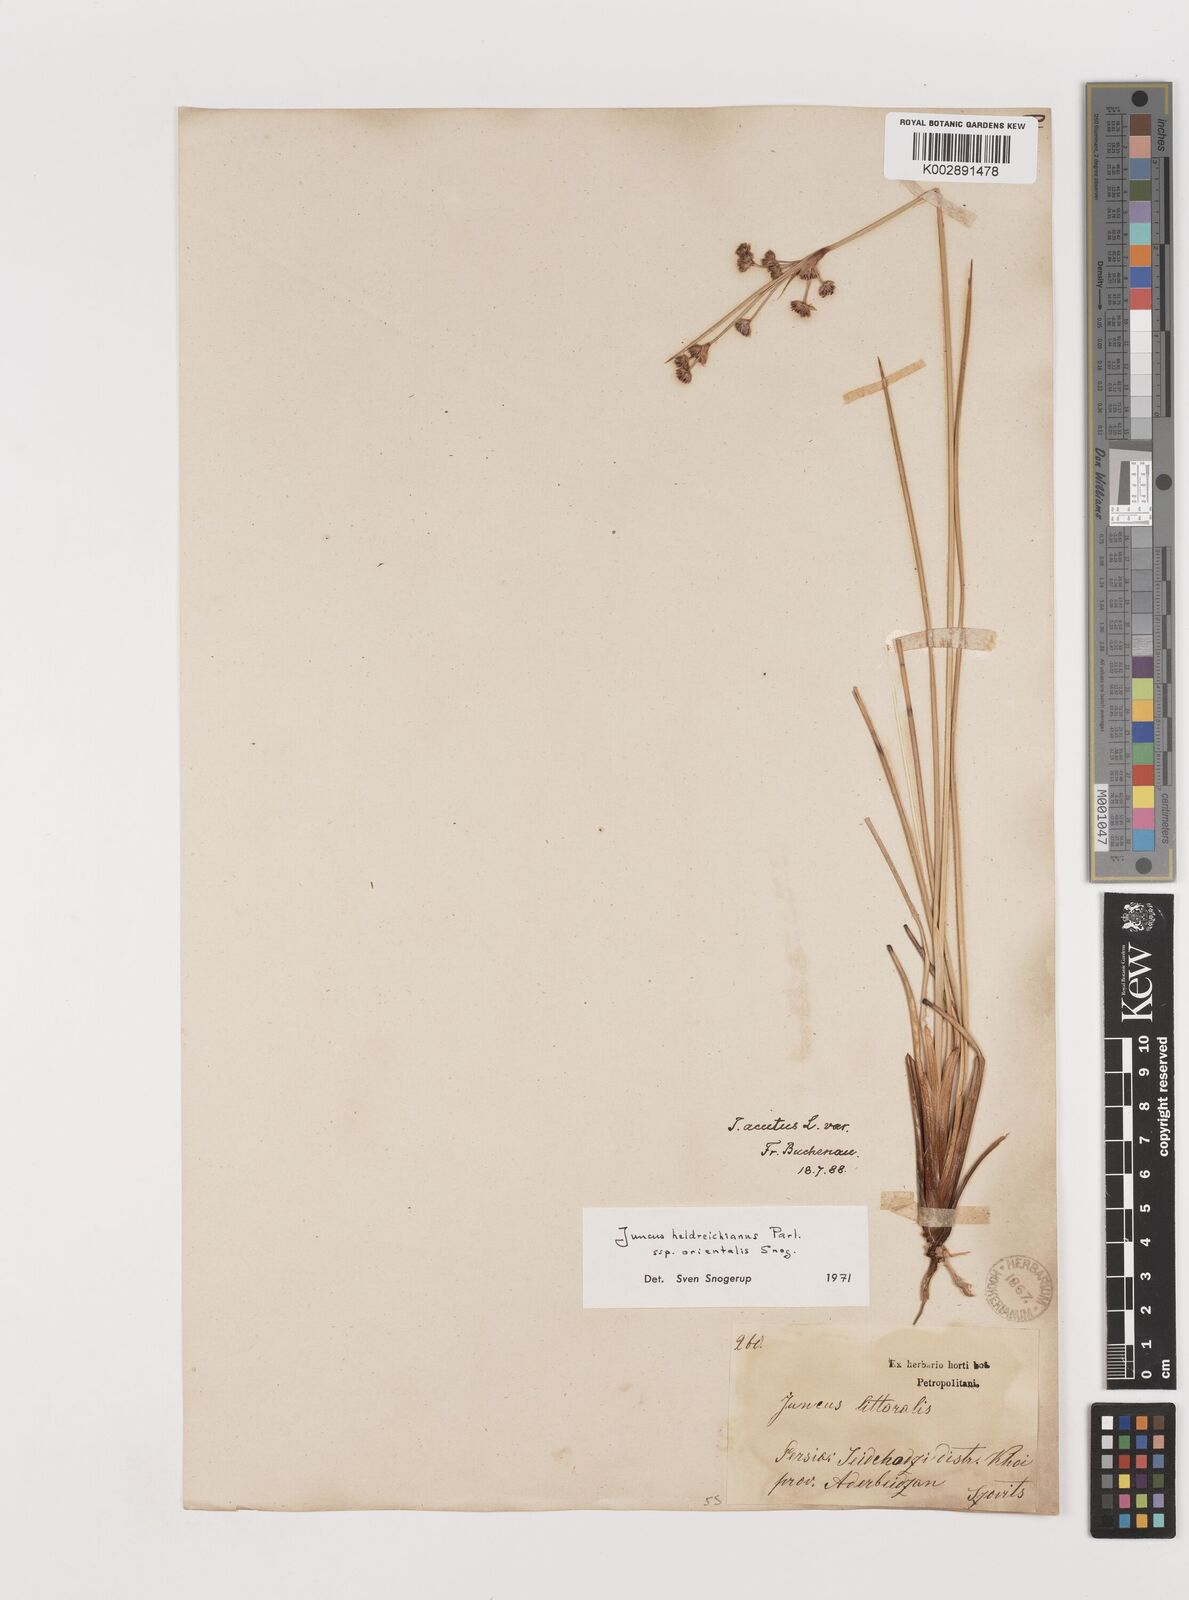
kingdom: Plantae
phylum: Tracheophyta
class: Liliopsida
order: Poales
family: Juncaceae
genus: Juncus
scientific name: Juncus heldreichianus
